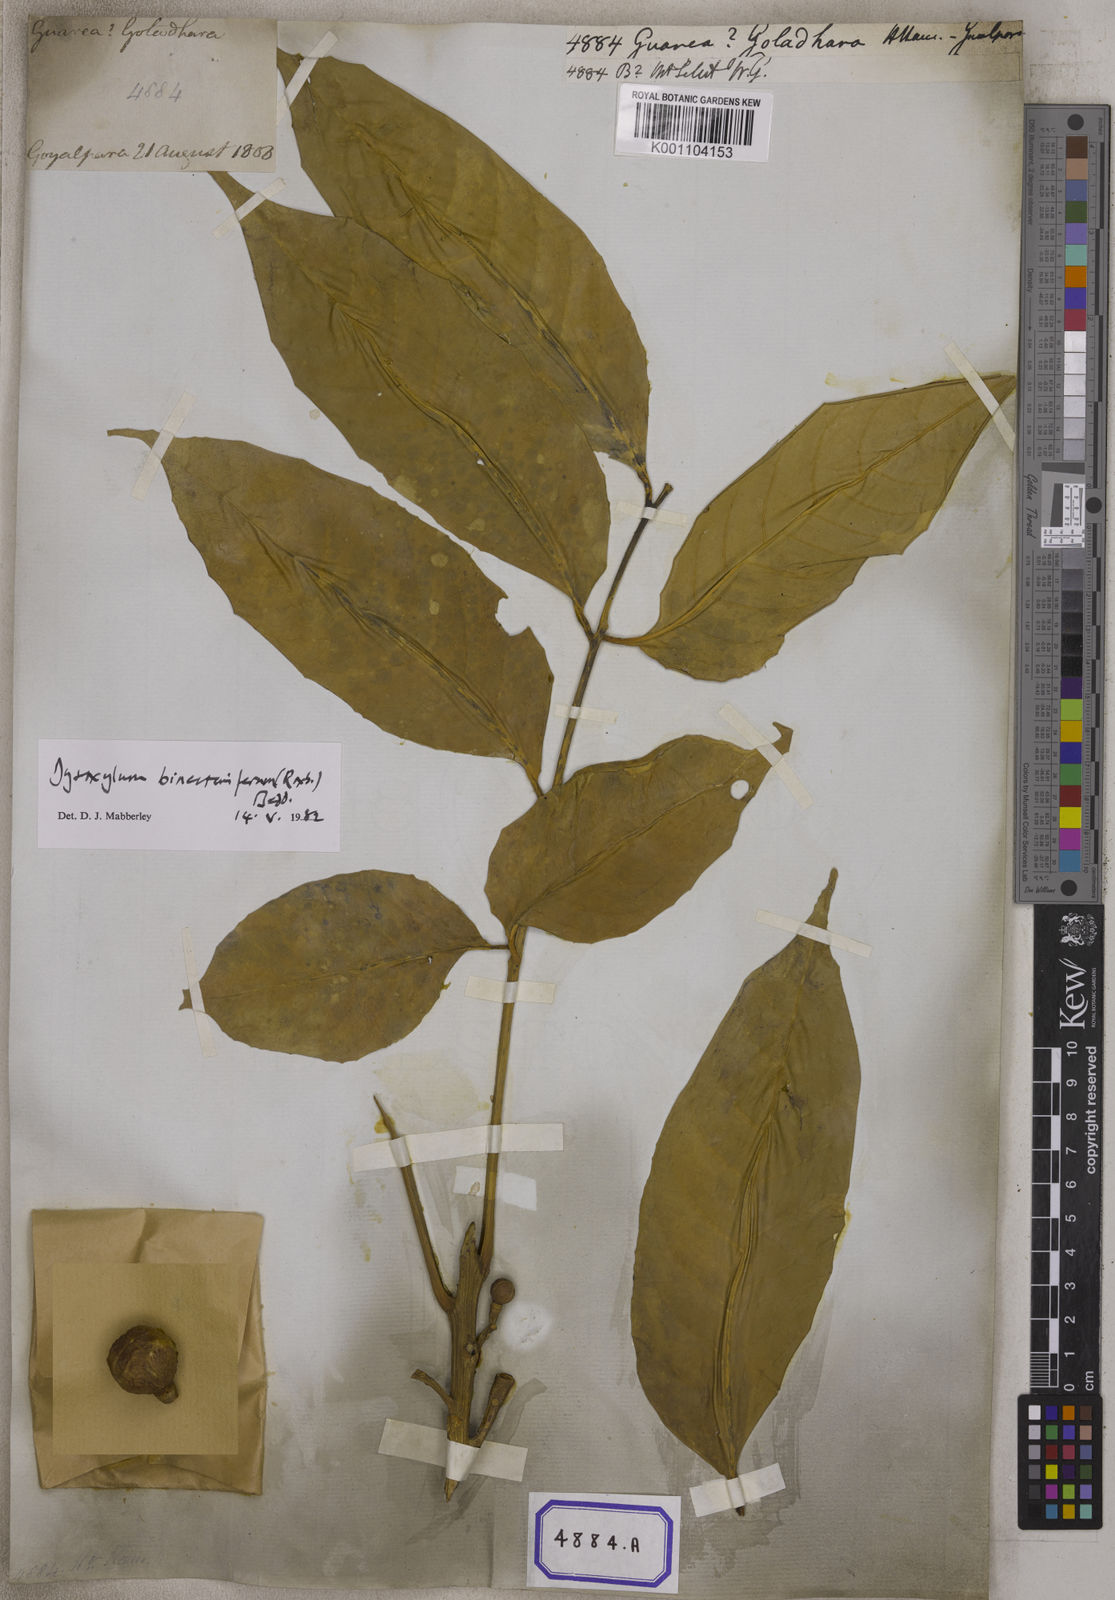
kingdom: Plantae
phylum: Tracheophyta
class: Magnoliopsida
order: Sapindales
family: Meliaceae
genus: Guarea
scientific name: Guarea
